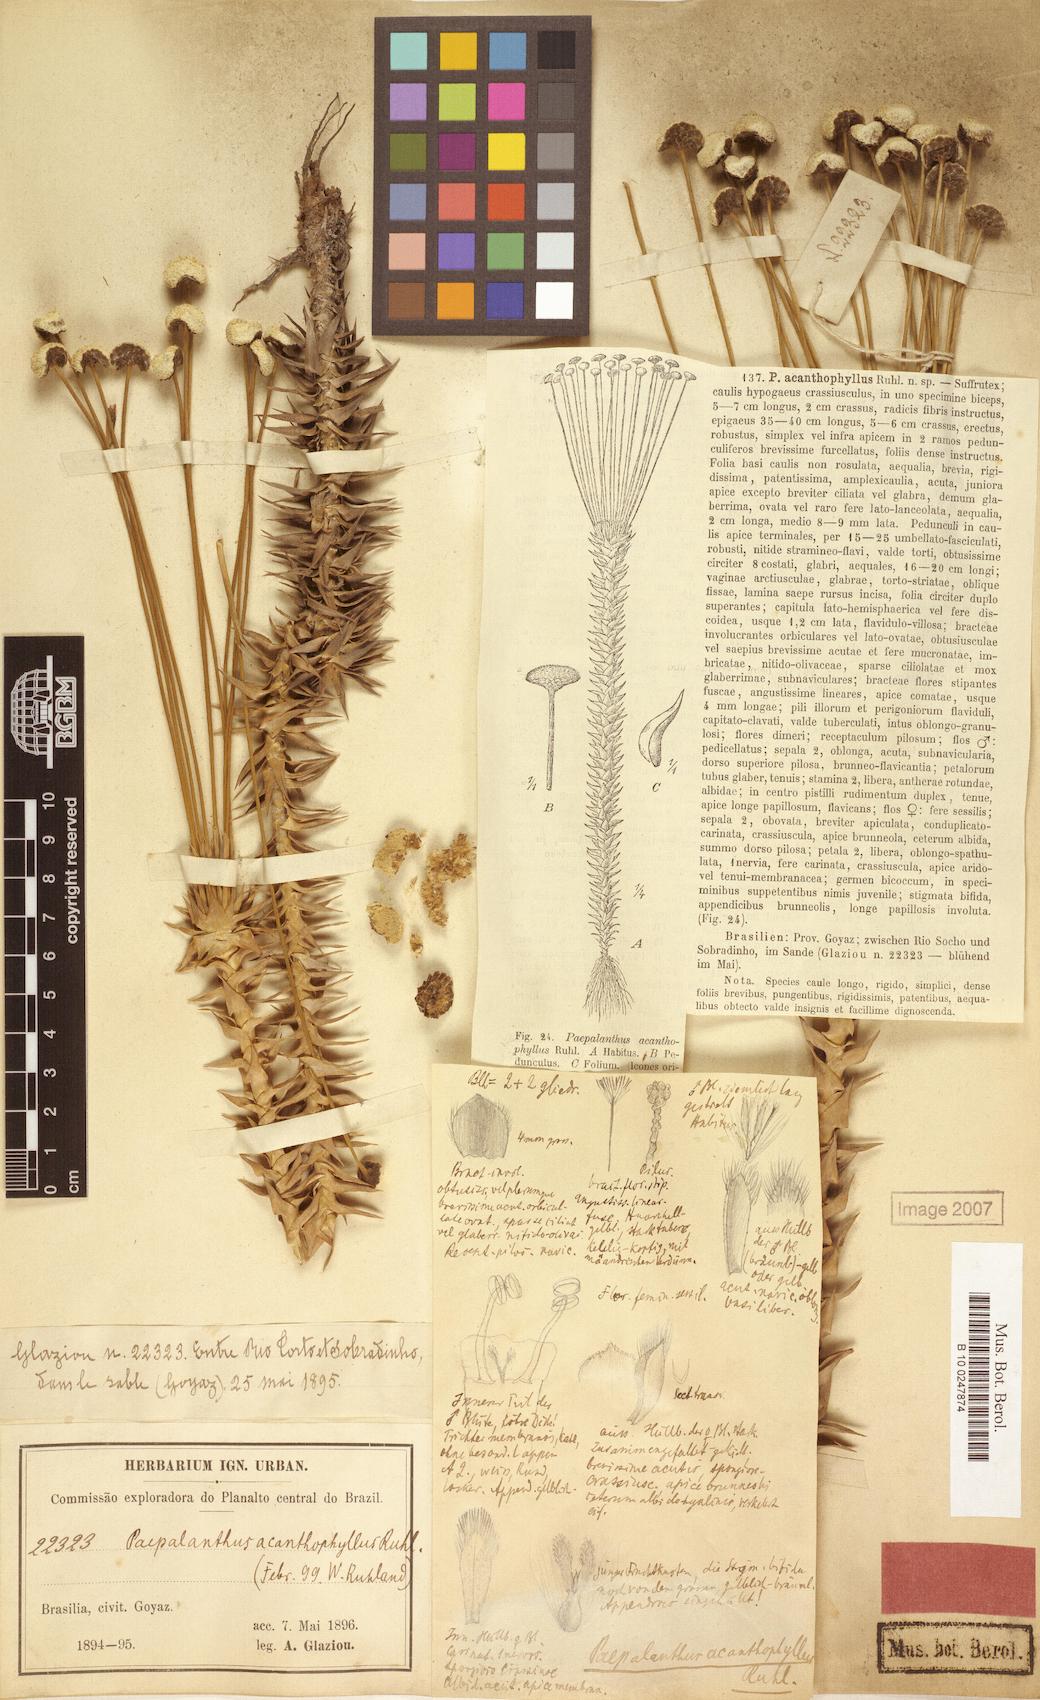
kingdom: Plantae
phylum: Tracheophyta
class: Liliopsida
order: Poales
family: Eriocaulaceae
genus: Paepalanthus
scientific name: Paepalanthus acanthophyllus
